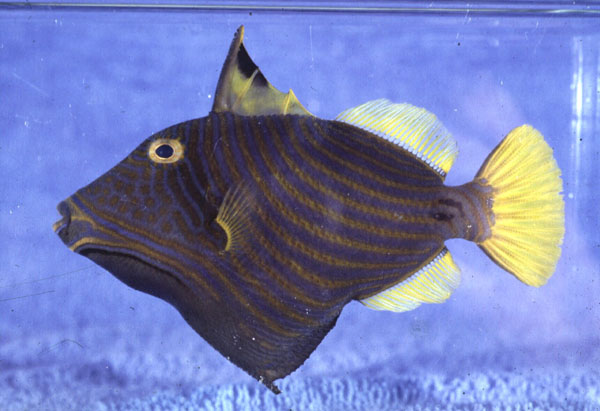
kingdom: Animalia
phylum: Chordata
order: Tetraodontiformes
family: Balistidae
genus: Balistapus
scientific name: Balistapus undulatus
